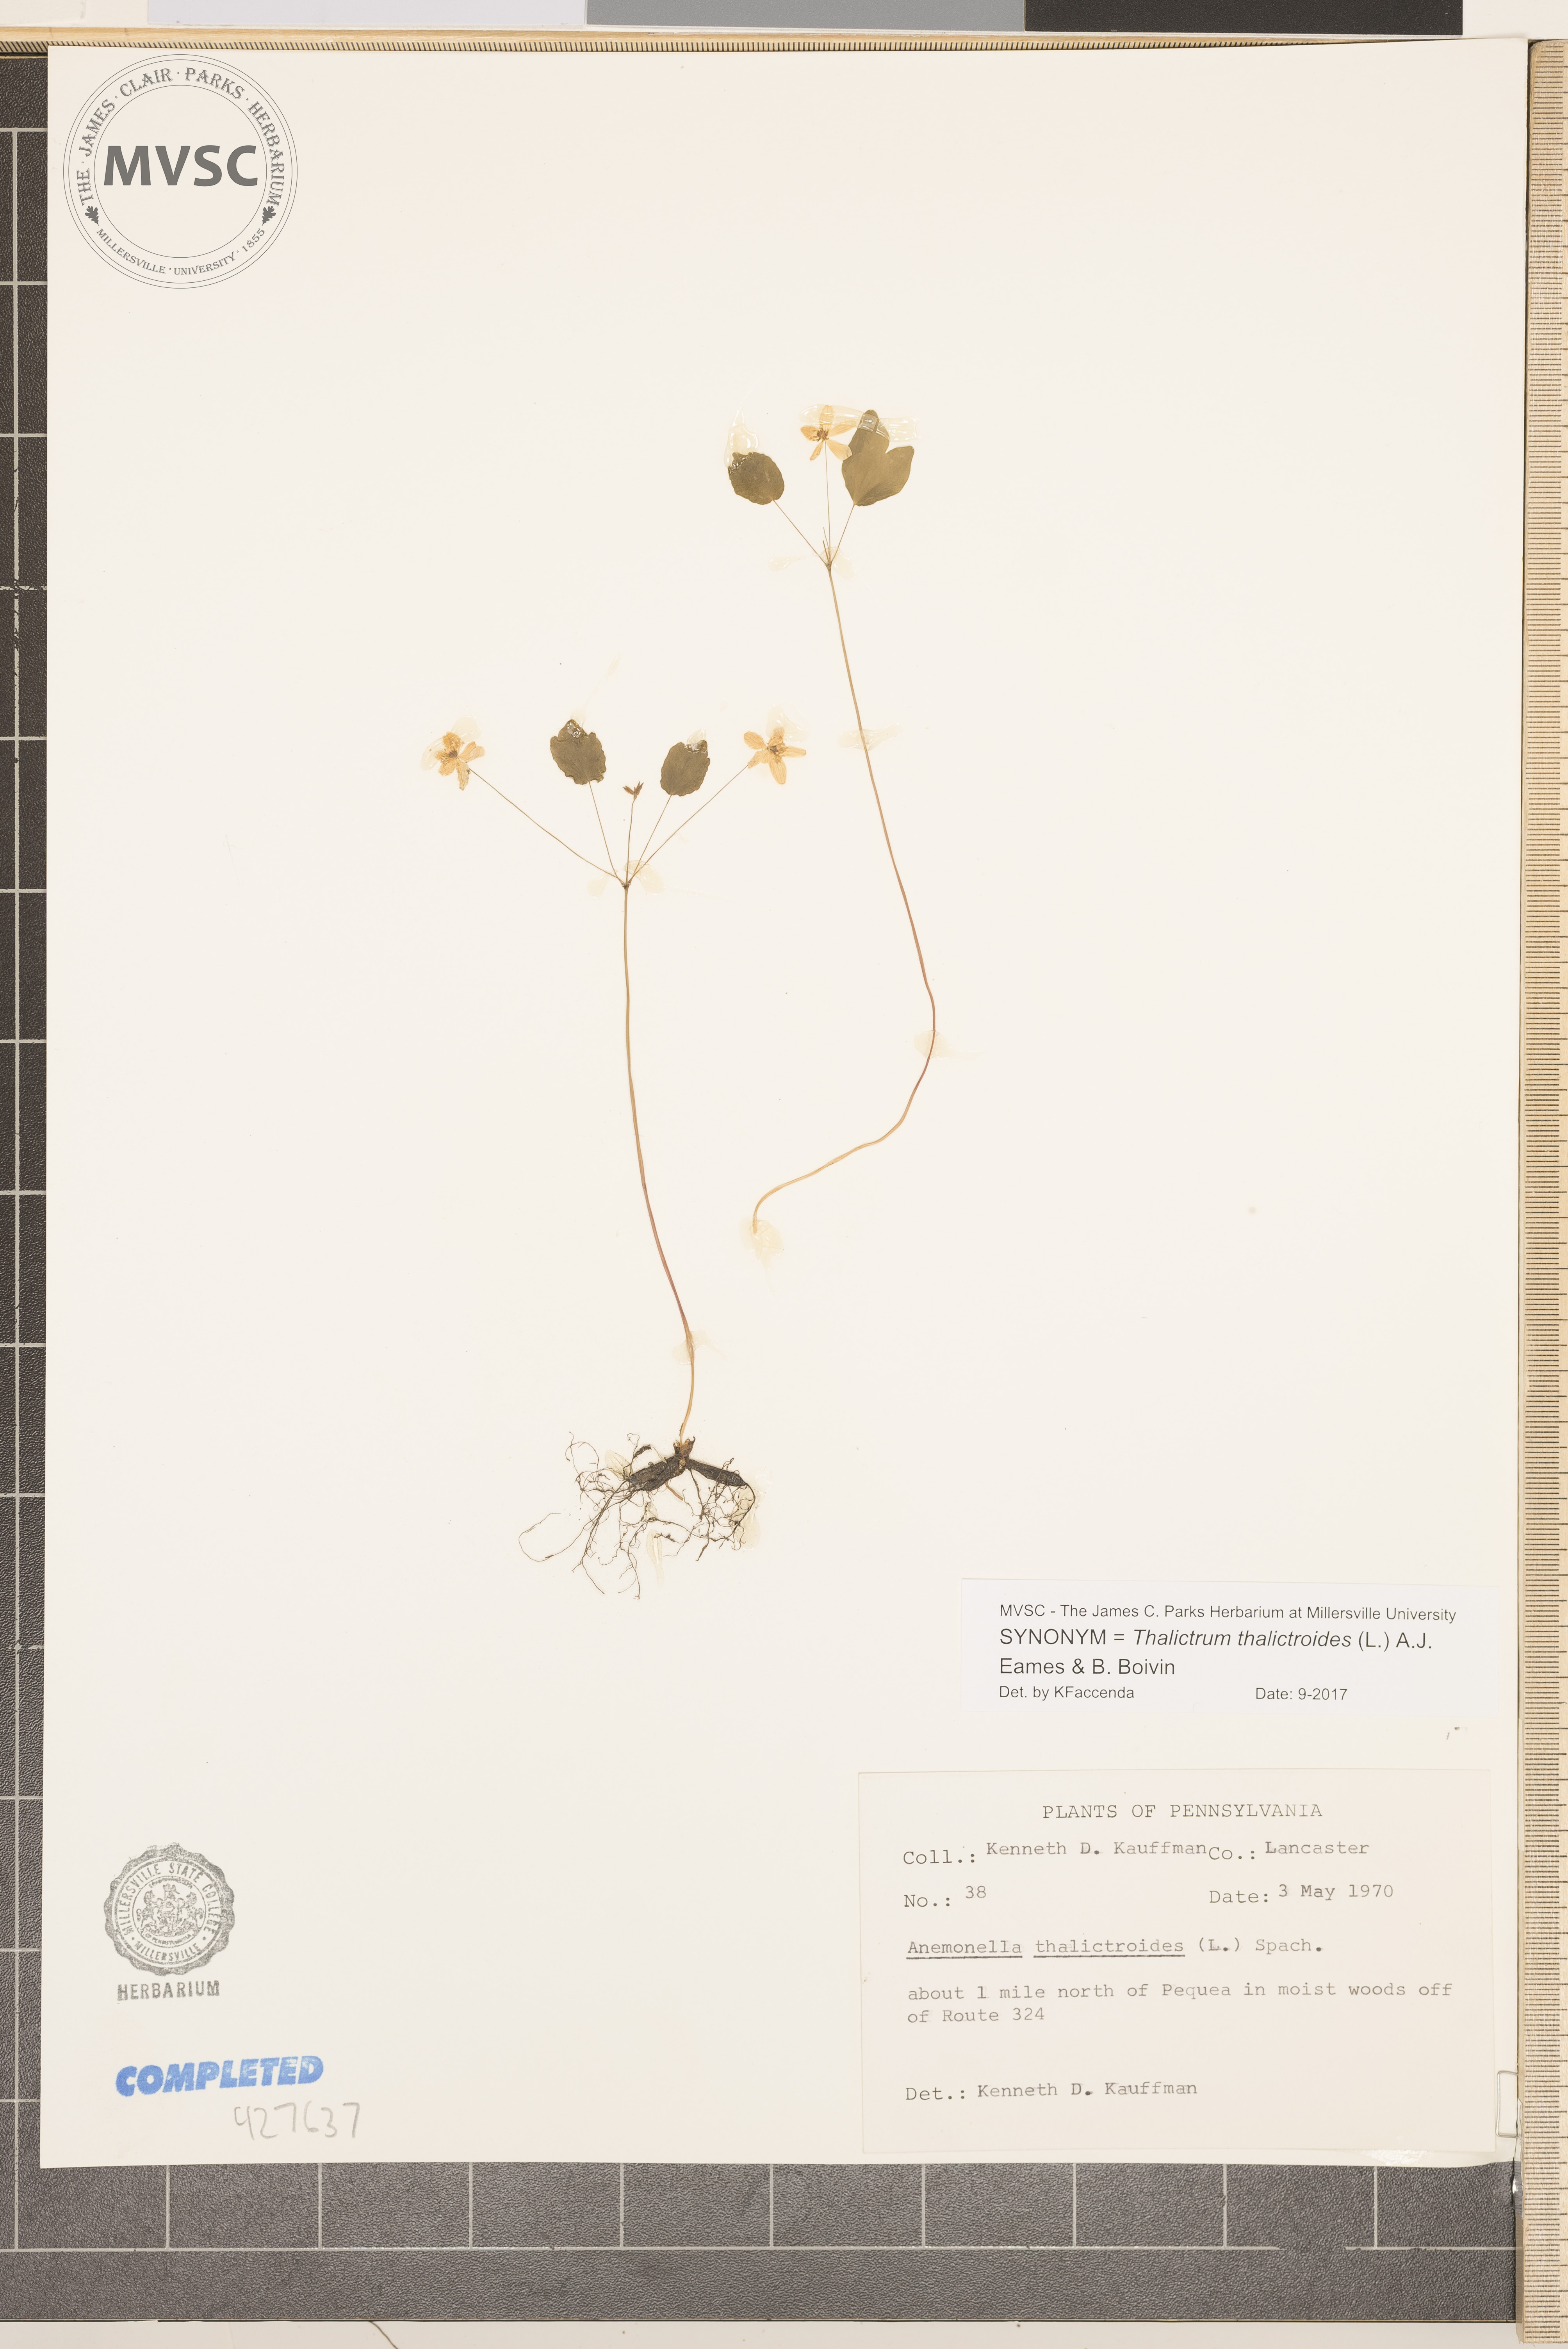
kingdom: Plantae
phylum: Tracheophyta
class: Magnoliopsida
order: Ranunculales
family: Ranunculaceae
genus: Thalictrum
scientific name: Thalictrum thalictroides
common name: Rue anemone
